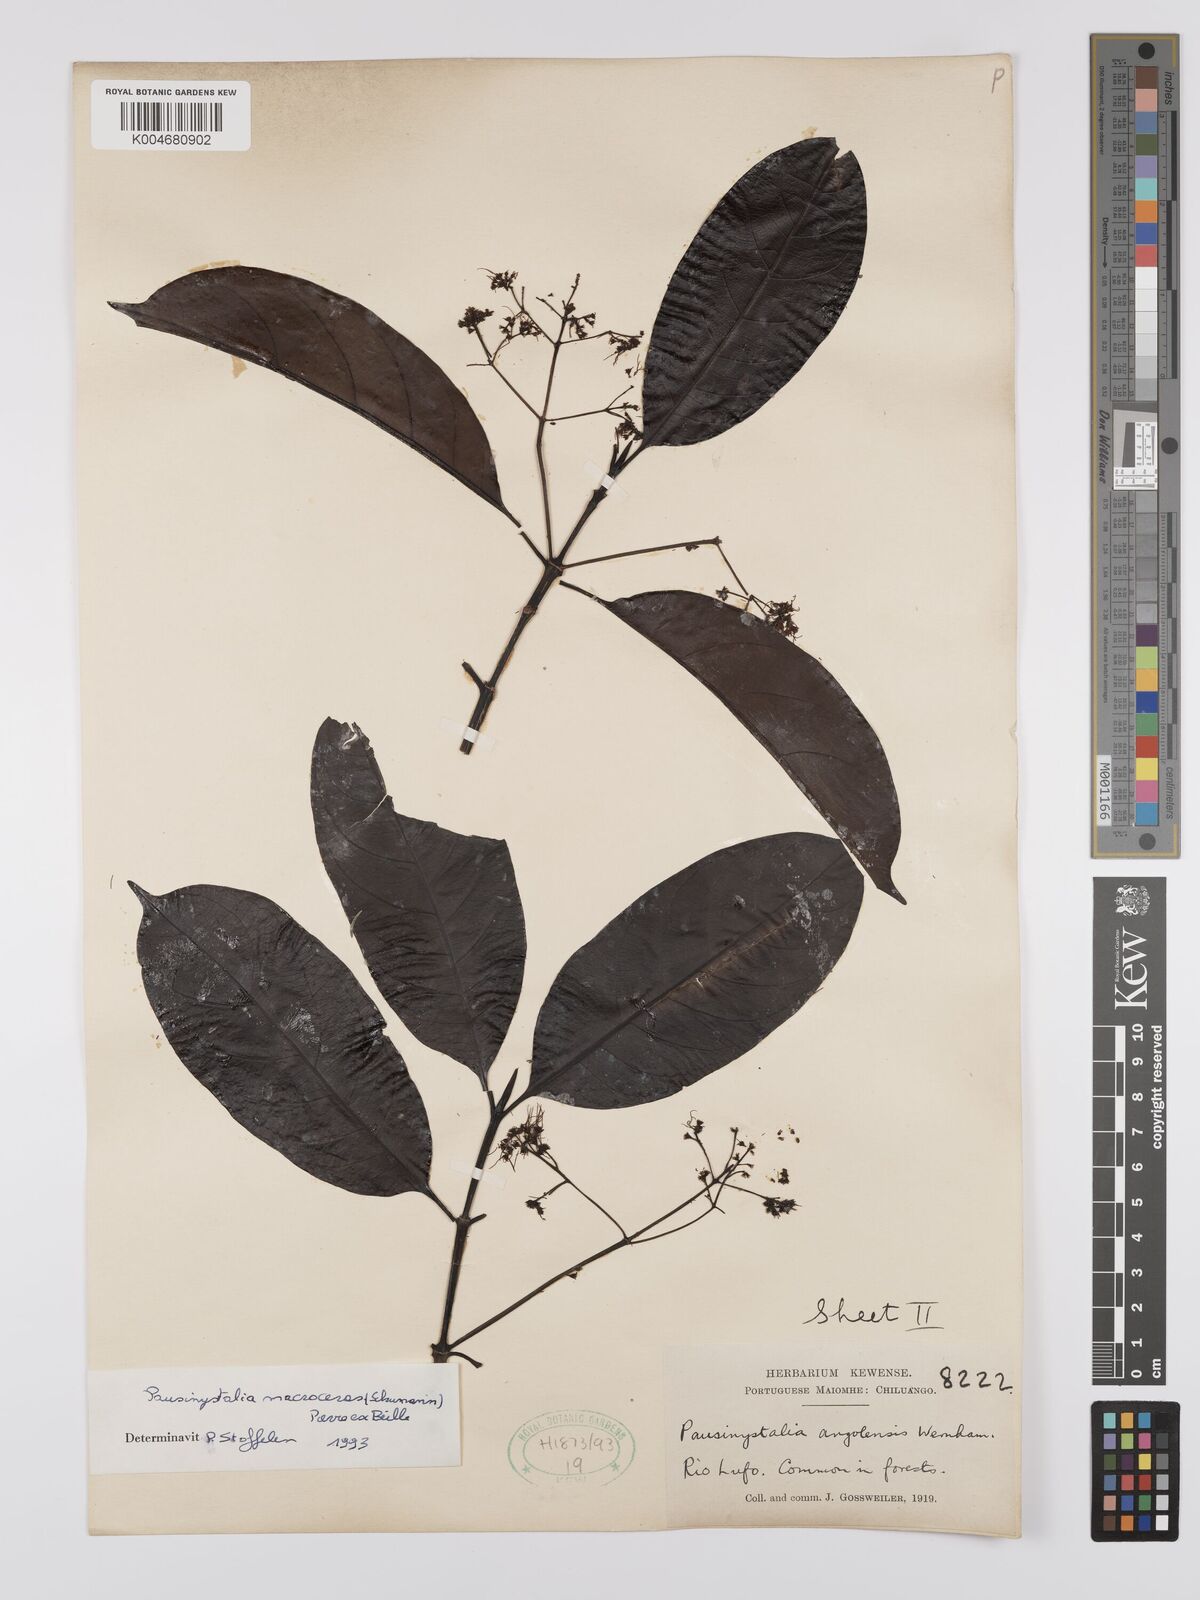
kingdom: Plantae
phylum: Tracheophyta
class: Magnoliopsida
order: Gentianales
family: Rubiaceae
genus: Corynanthe
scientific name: Corynanthe macroceras
